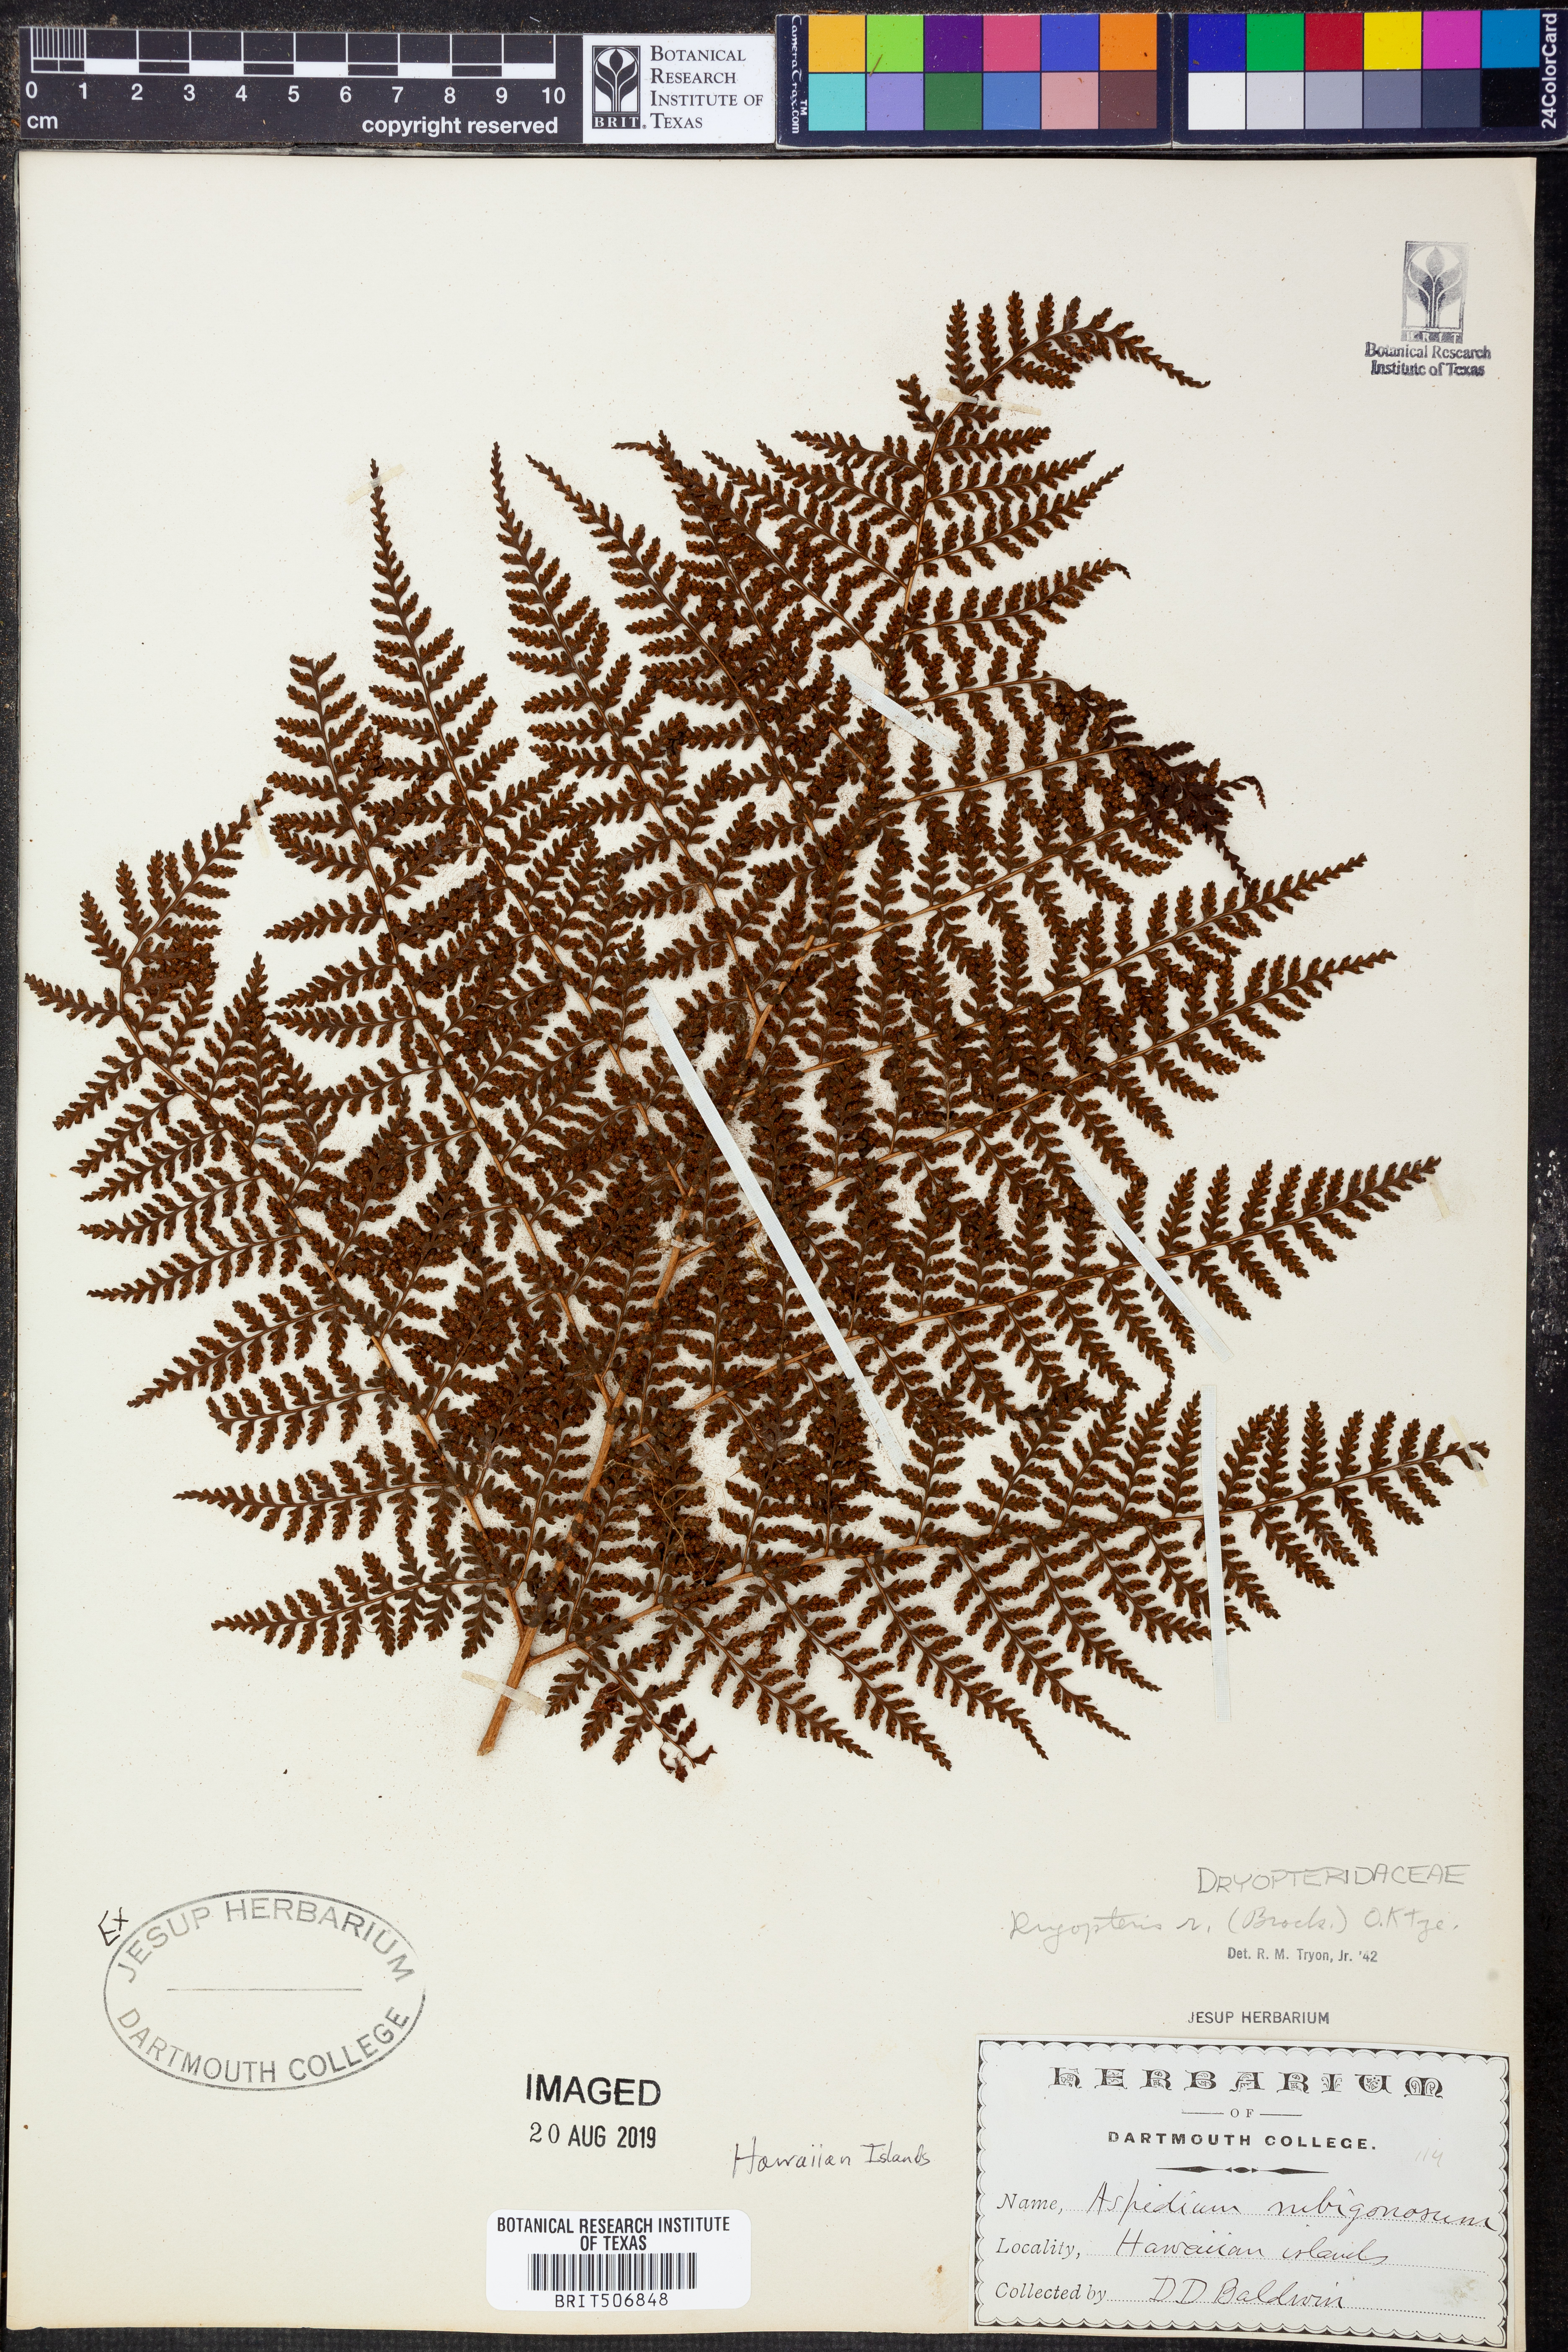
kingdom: Plantae
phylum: Tracheophyta
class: Polypodiopsida
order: Polypodiales
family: Dryopteridaceae
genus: Dryopteris
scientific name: Dryopteris rubiginosa
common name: Island lacefern
